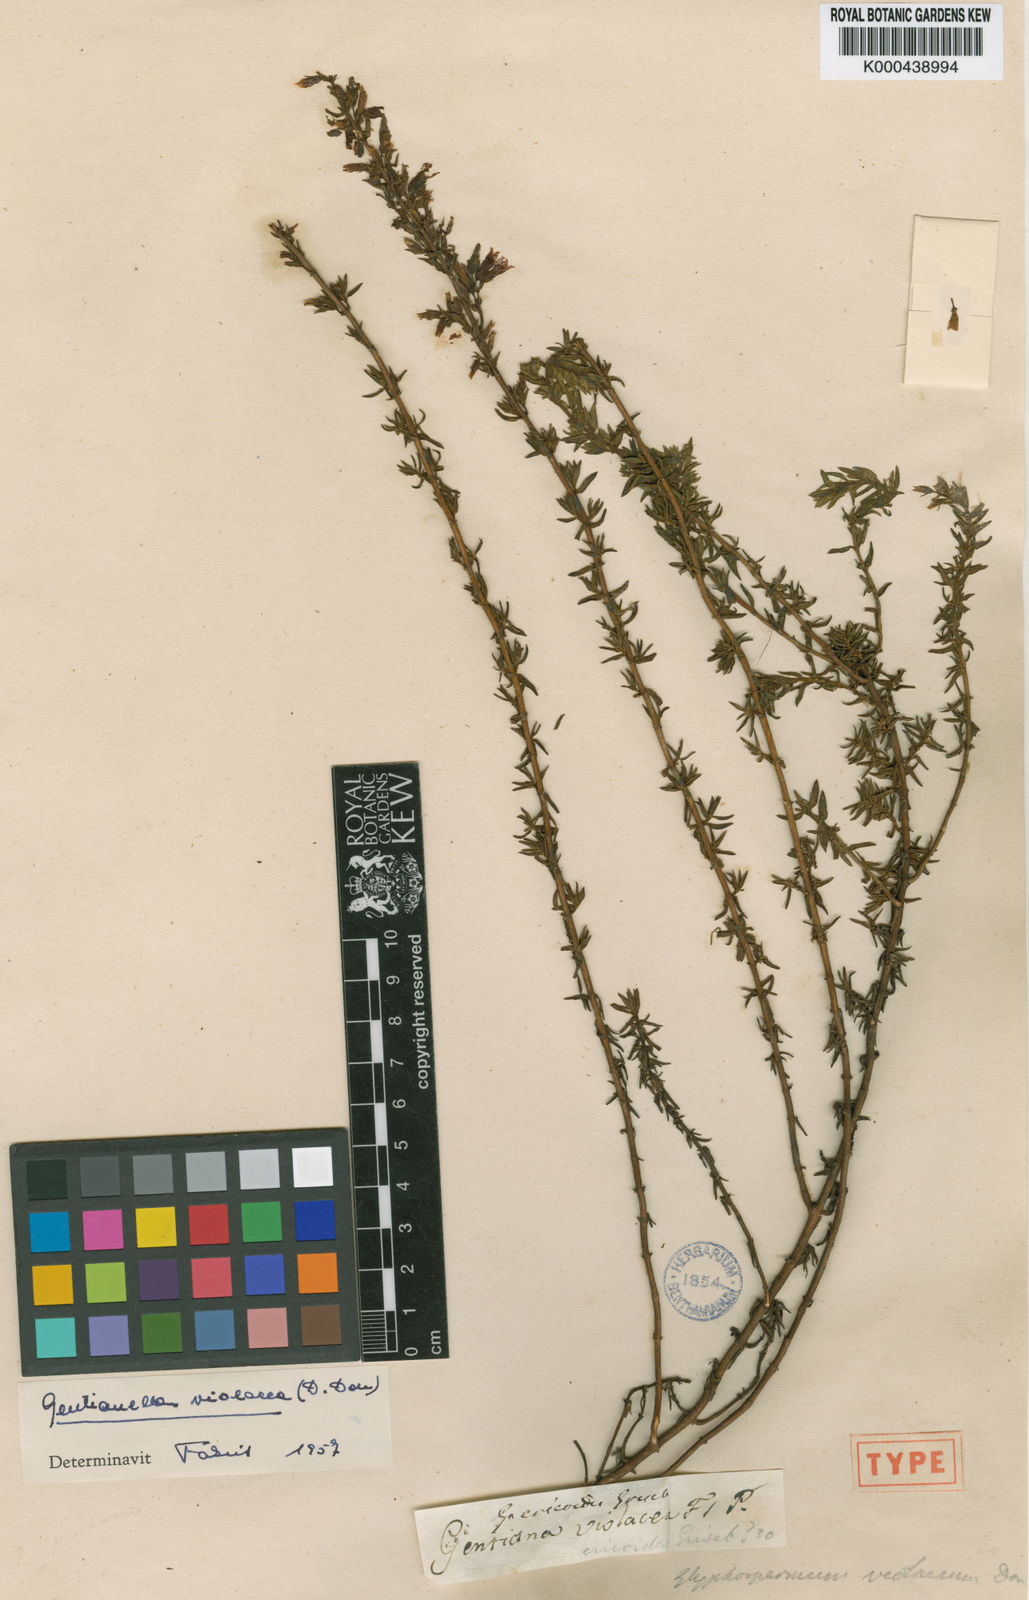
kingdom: Plantae
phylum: Tracheophyta
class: Magnoliopsida
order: Gentianales
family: Gentianaceae
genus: Gentianella
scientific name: Gentianella violacea
